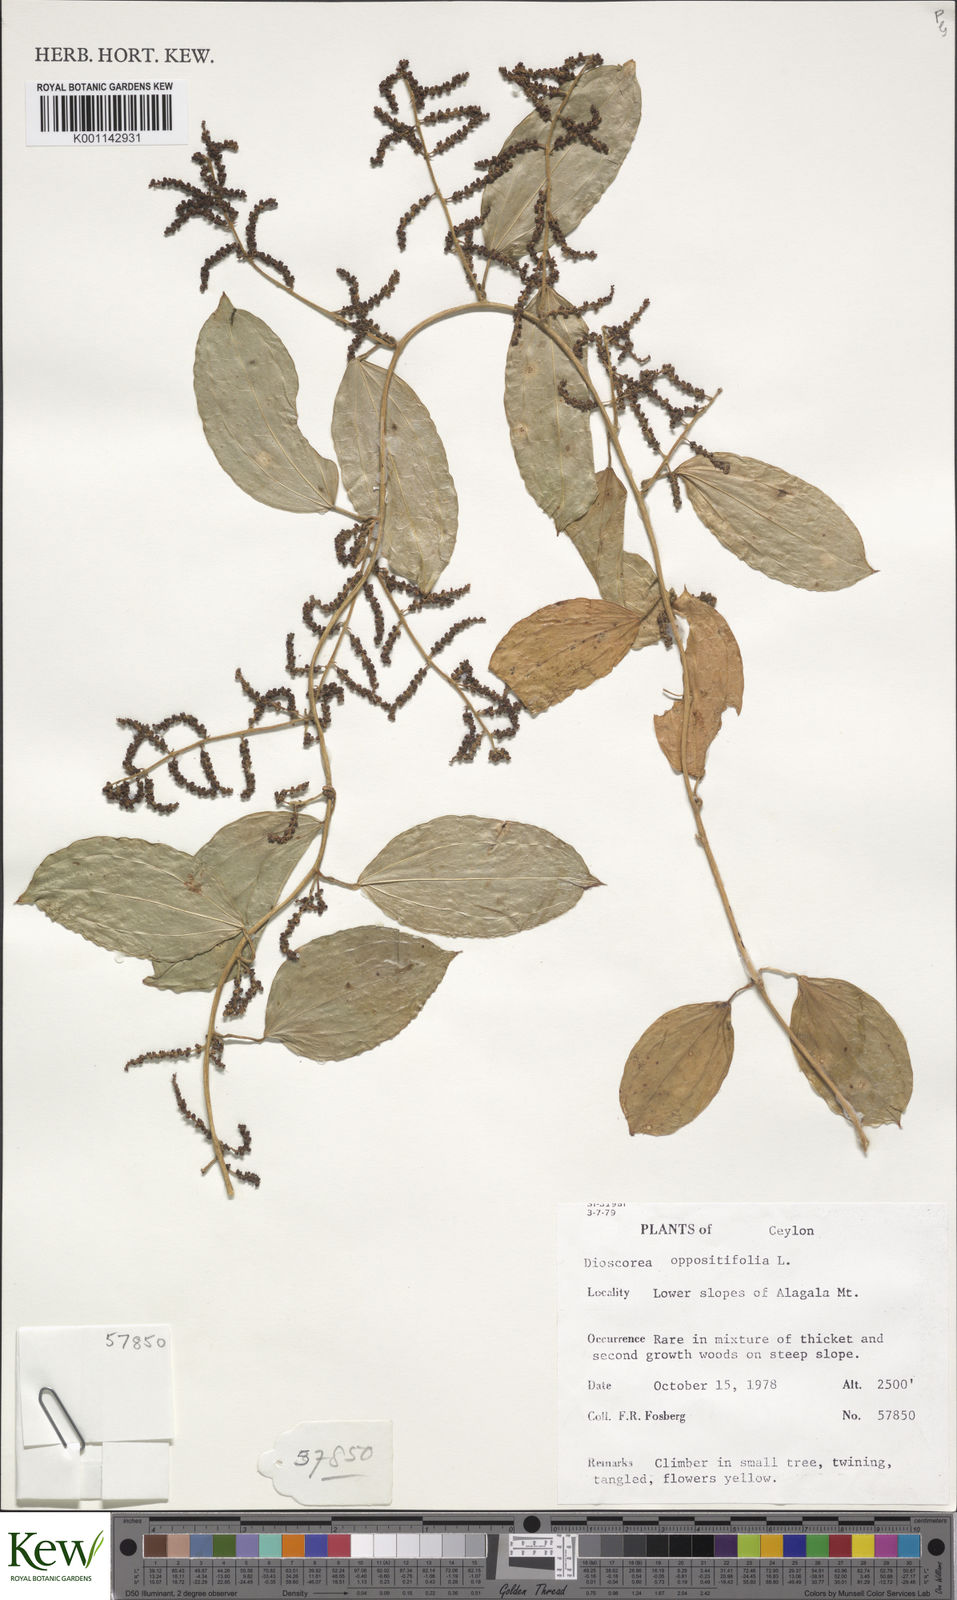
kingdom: Plantae
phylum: Tracheophyta
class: Liliopsida
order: Dioscoreales
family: Dioscoreaceae
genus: Dioscorea
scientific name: Dioscorea oppositifolia
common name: Chinese yam
